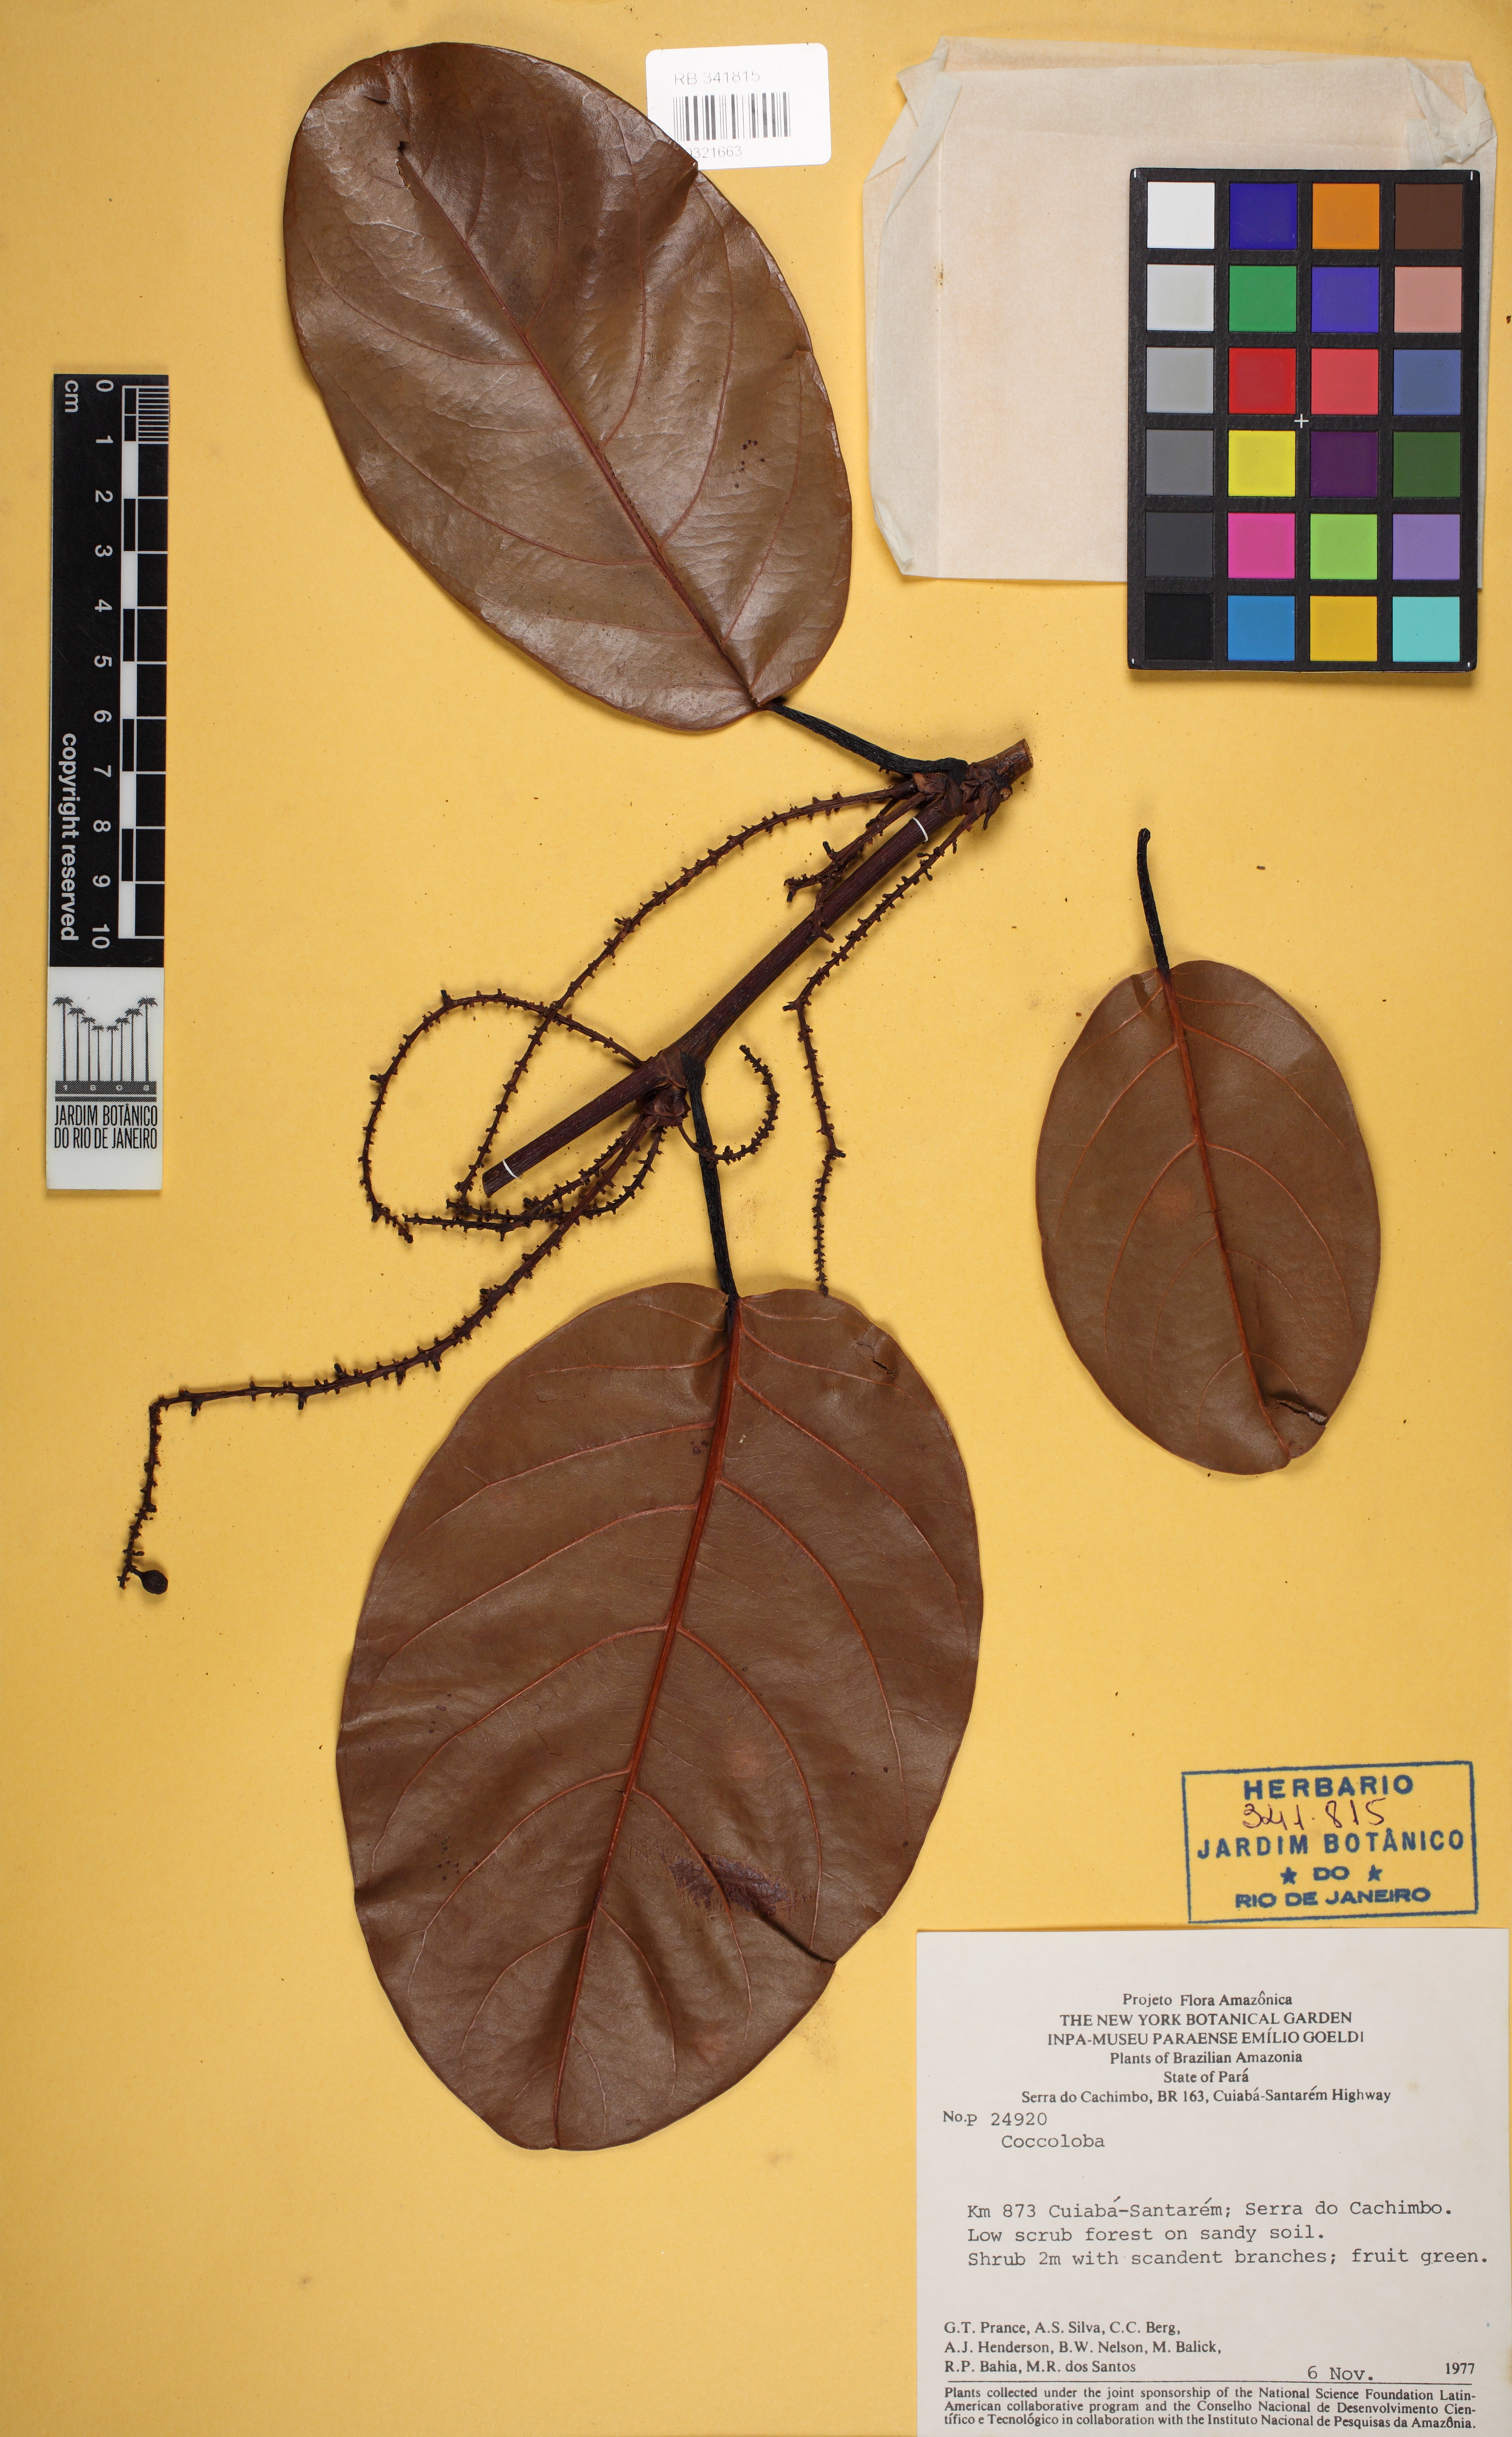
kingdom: Plantae
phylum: Tracheophyta
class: Magnoliopsida
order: Caryophyllales
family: Polygonaceae
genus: Coccoloba
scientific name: Coccoloba
